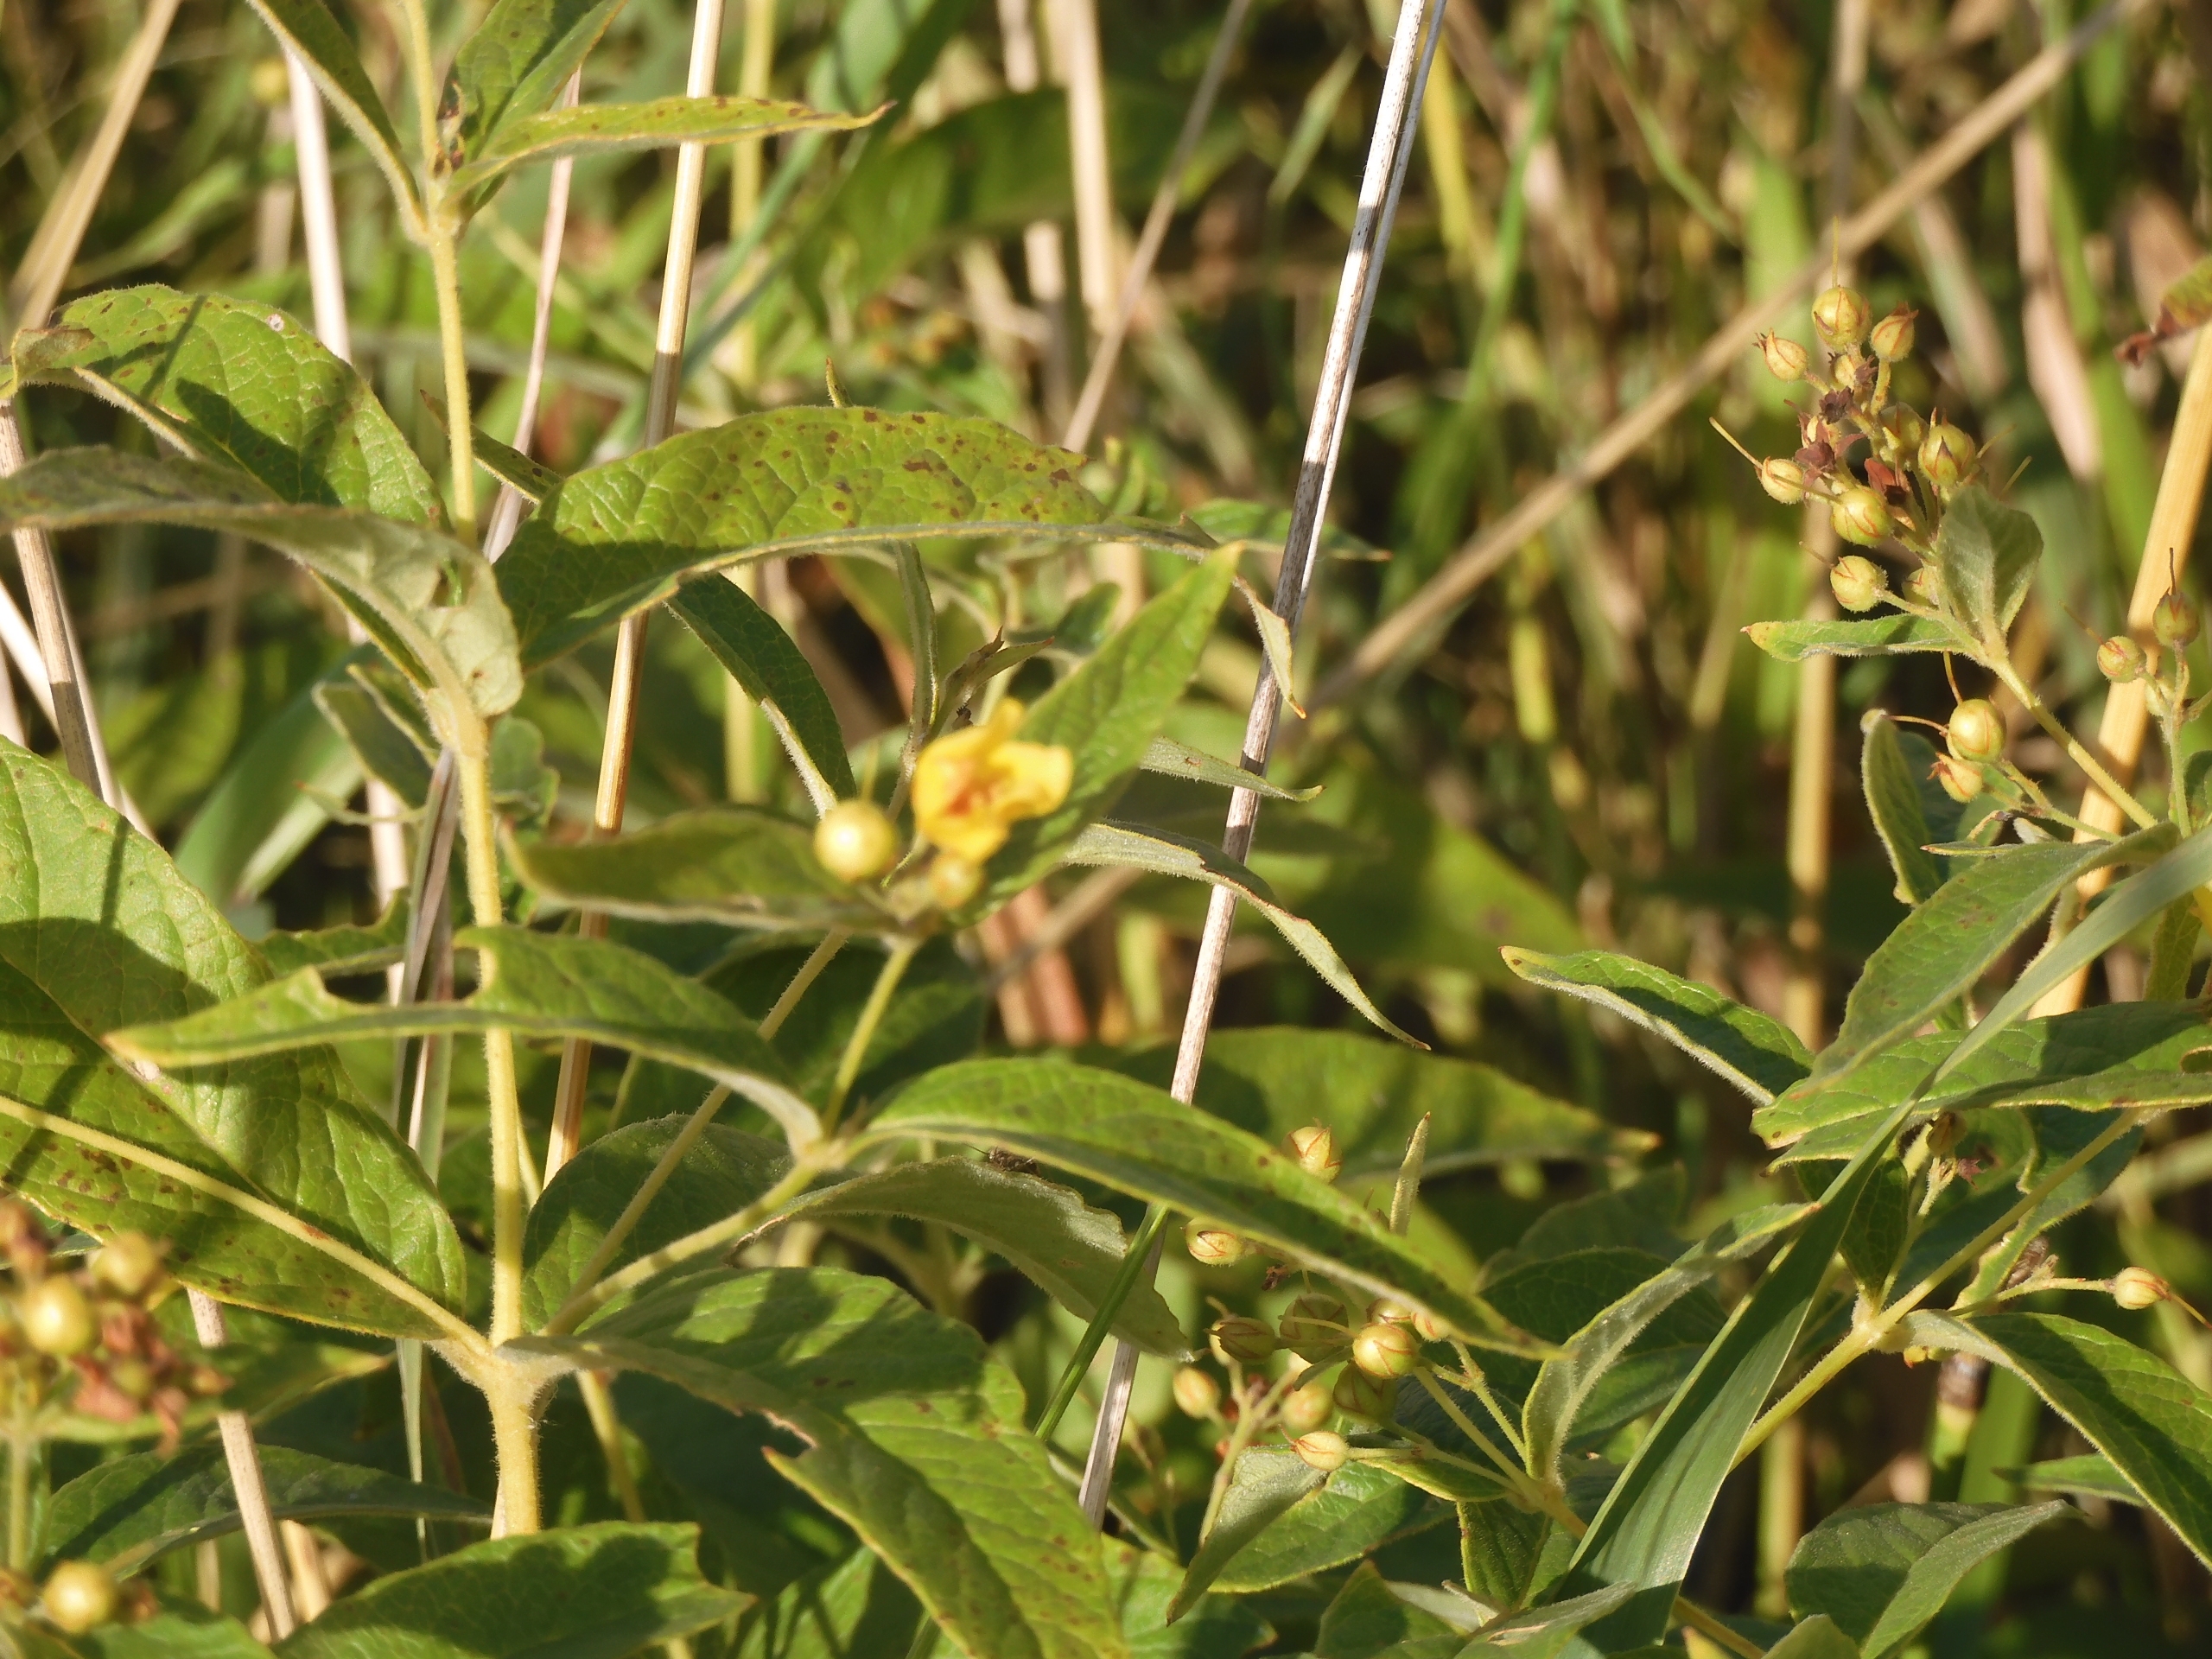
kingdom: Plantae
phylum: Tracheophyta
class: Magnoliopsida
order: Ericales
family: Primulaceae
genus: Lysimachia
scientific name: Lysimachia vulgaris
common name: Almindelig fredløs
